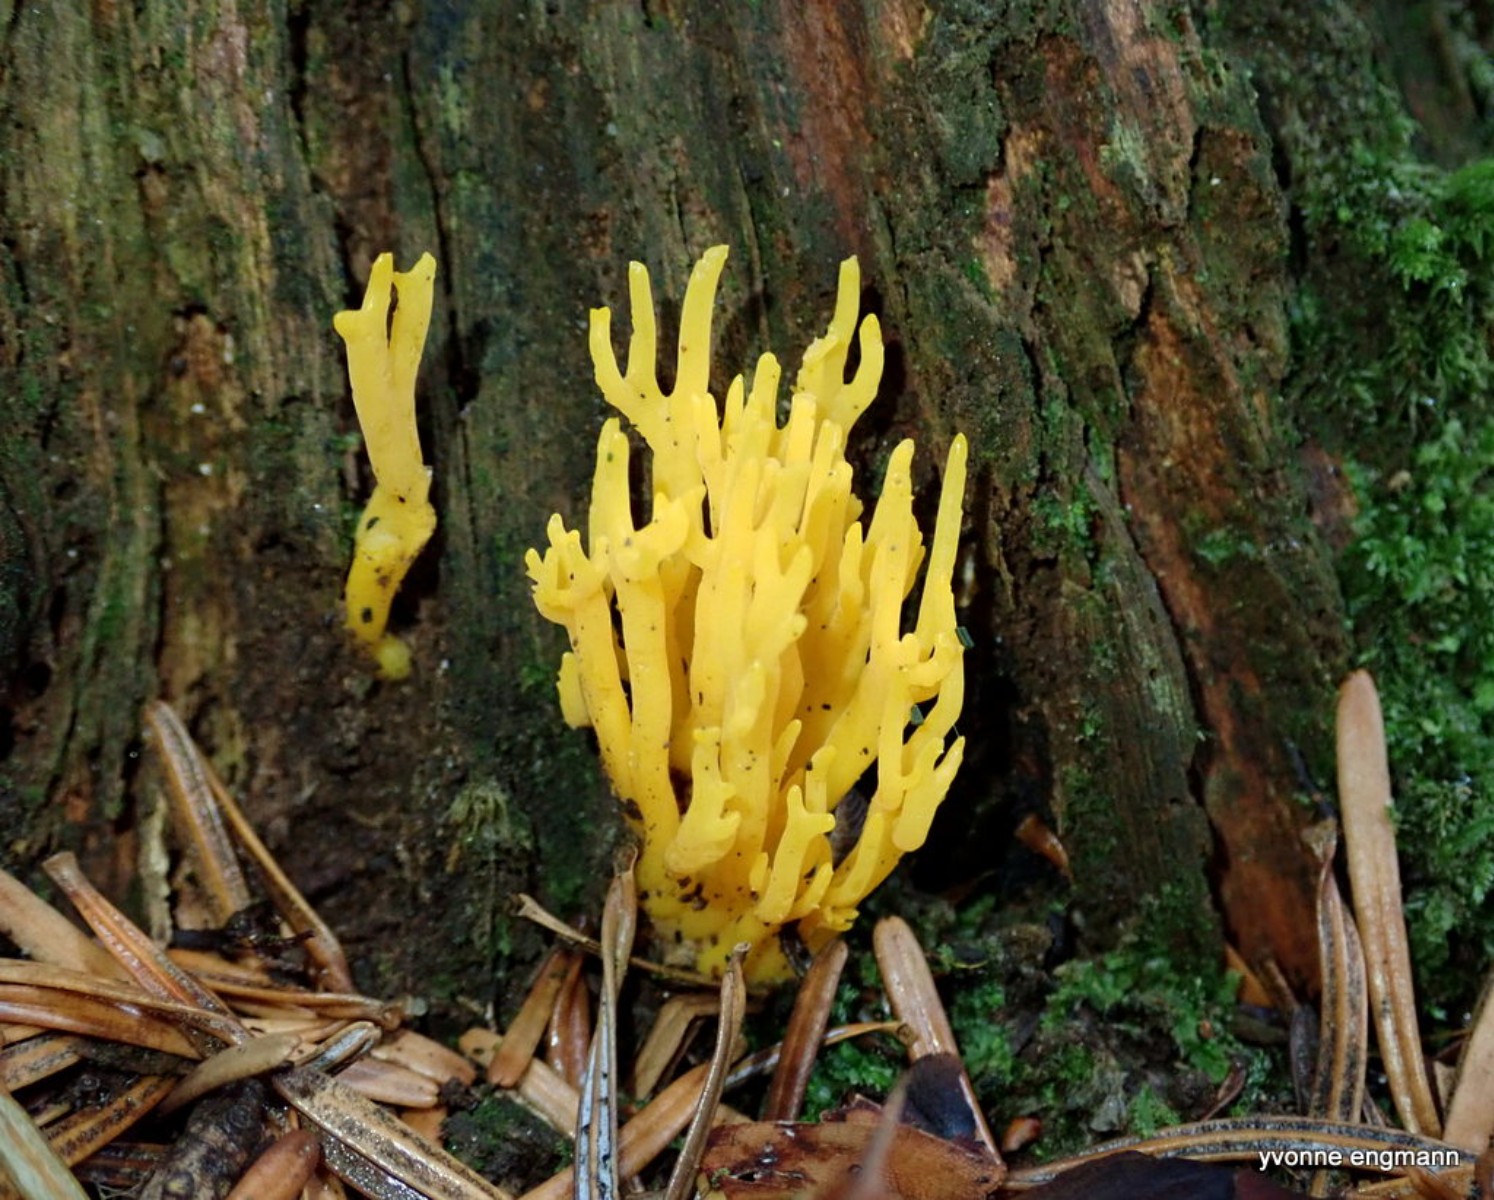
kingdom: Fungi
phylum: Basidiomycota
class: Dacrymycetes
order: Dacrymycetales
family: Dacrymycetaceae
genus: Calocera
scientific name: Calocera viscosa
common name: almindelig guldgaffel
